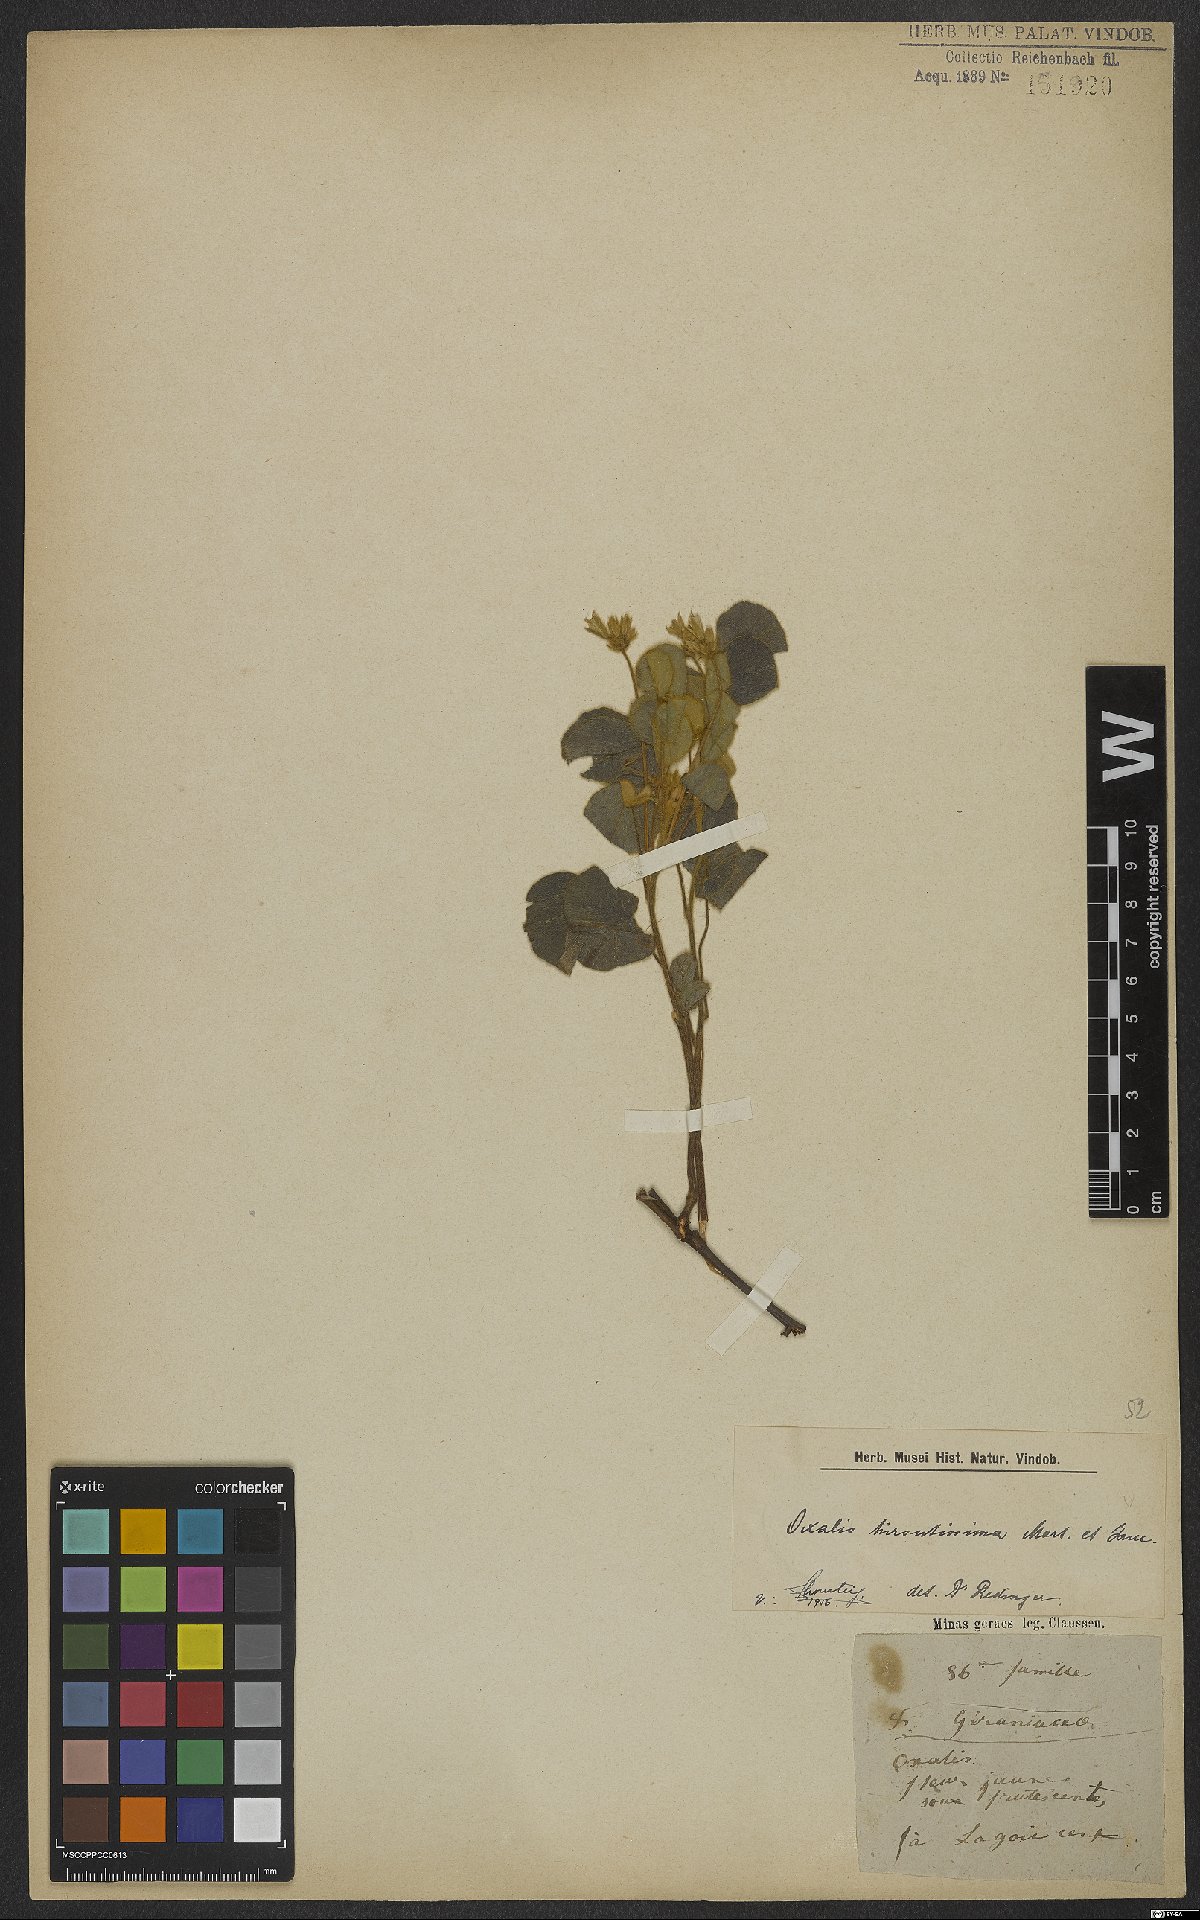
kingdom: Plantae
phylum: Tracheophyta
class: Magnoliopsida
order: Oxalidales
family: Oxalidaceae
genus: Oxalis
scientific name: Oxalis hirsutissima
